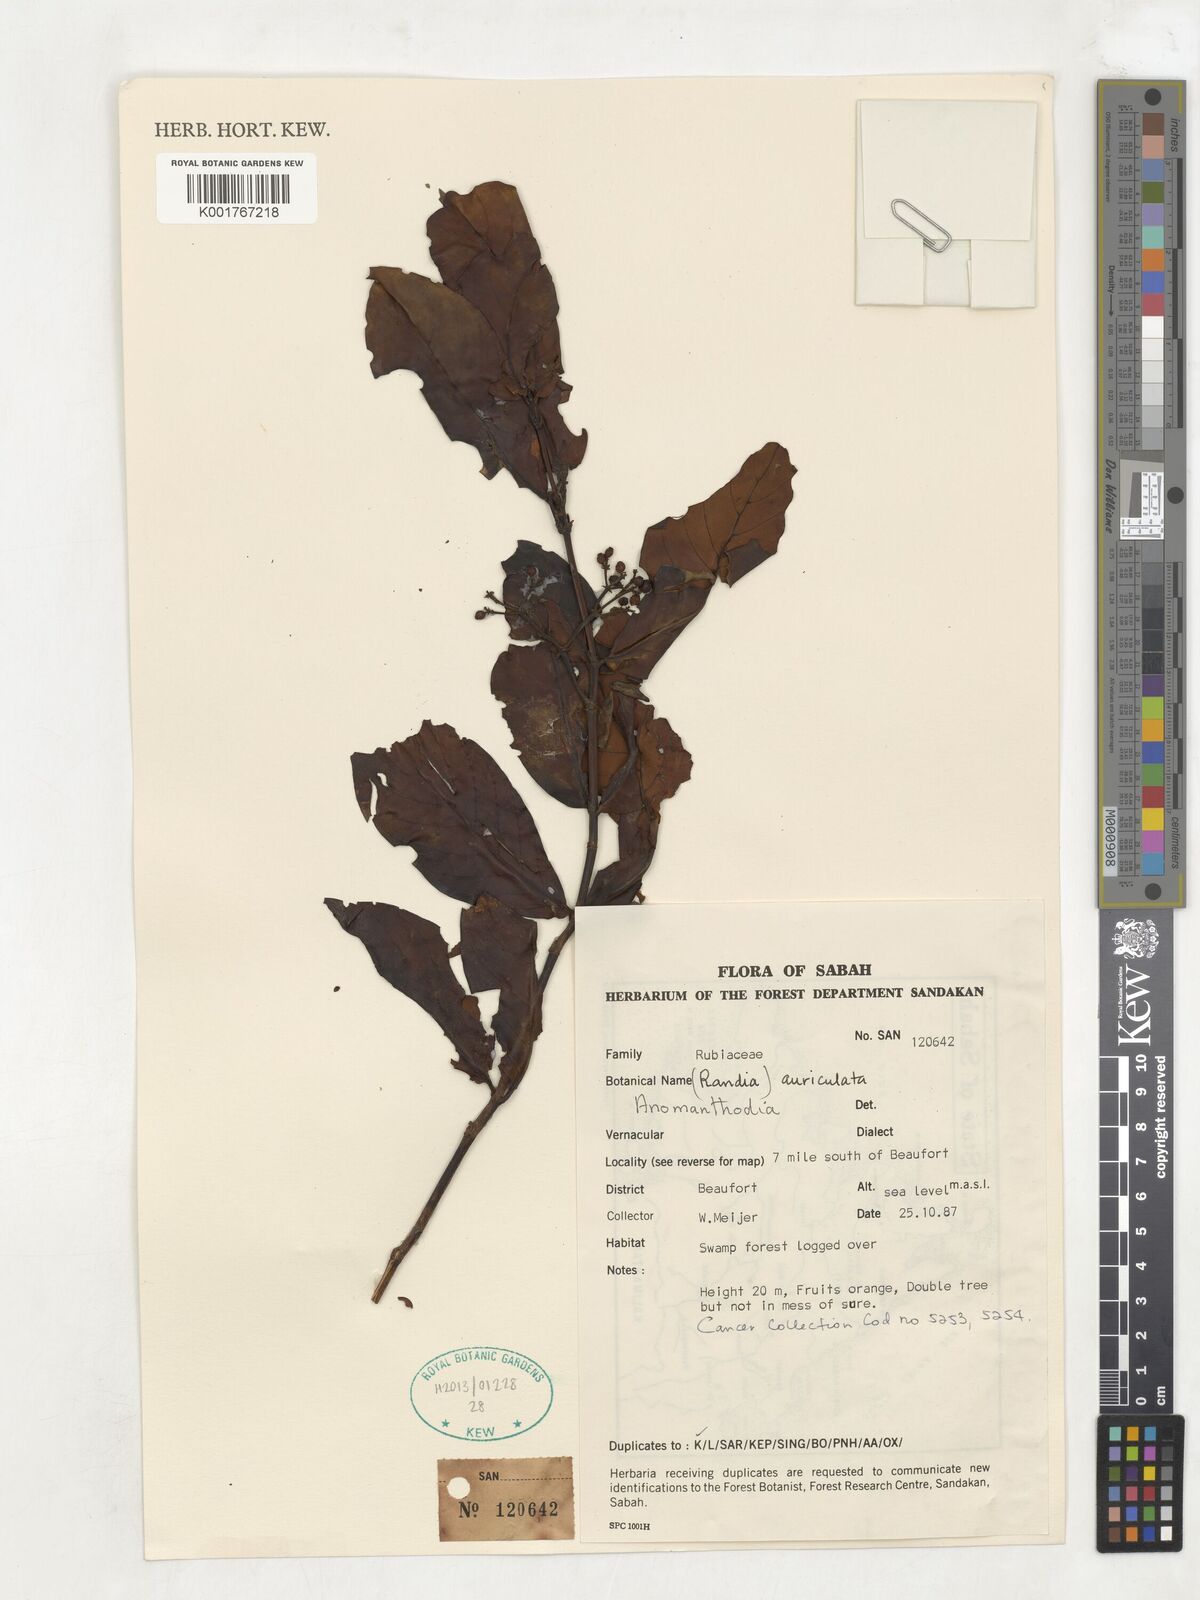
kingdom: Plantae
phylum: Tracheophyta
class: Magnoliopsida
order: Gentianales
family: Rubiaceae
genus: Aidia
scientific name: Aidia auriculata
